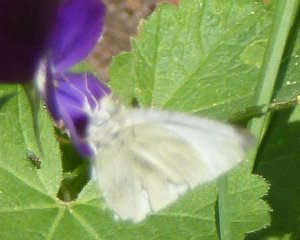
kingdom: Animalia
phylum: Arthropoda
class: Insecta
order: Lepidoptera
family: Pieridae
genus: Pieris
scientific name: Pieris rapae
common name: Cabbage White
